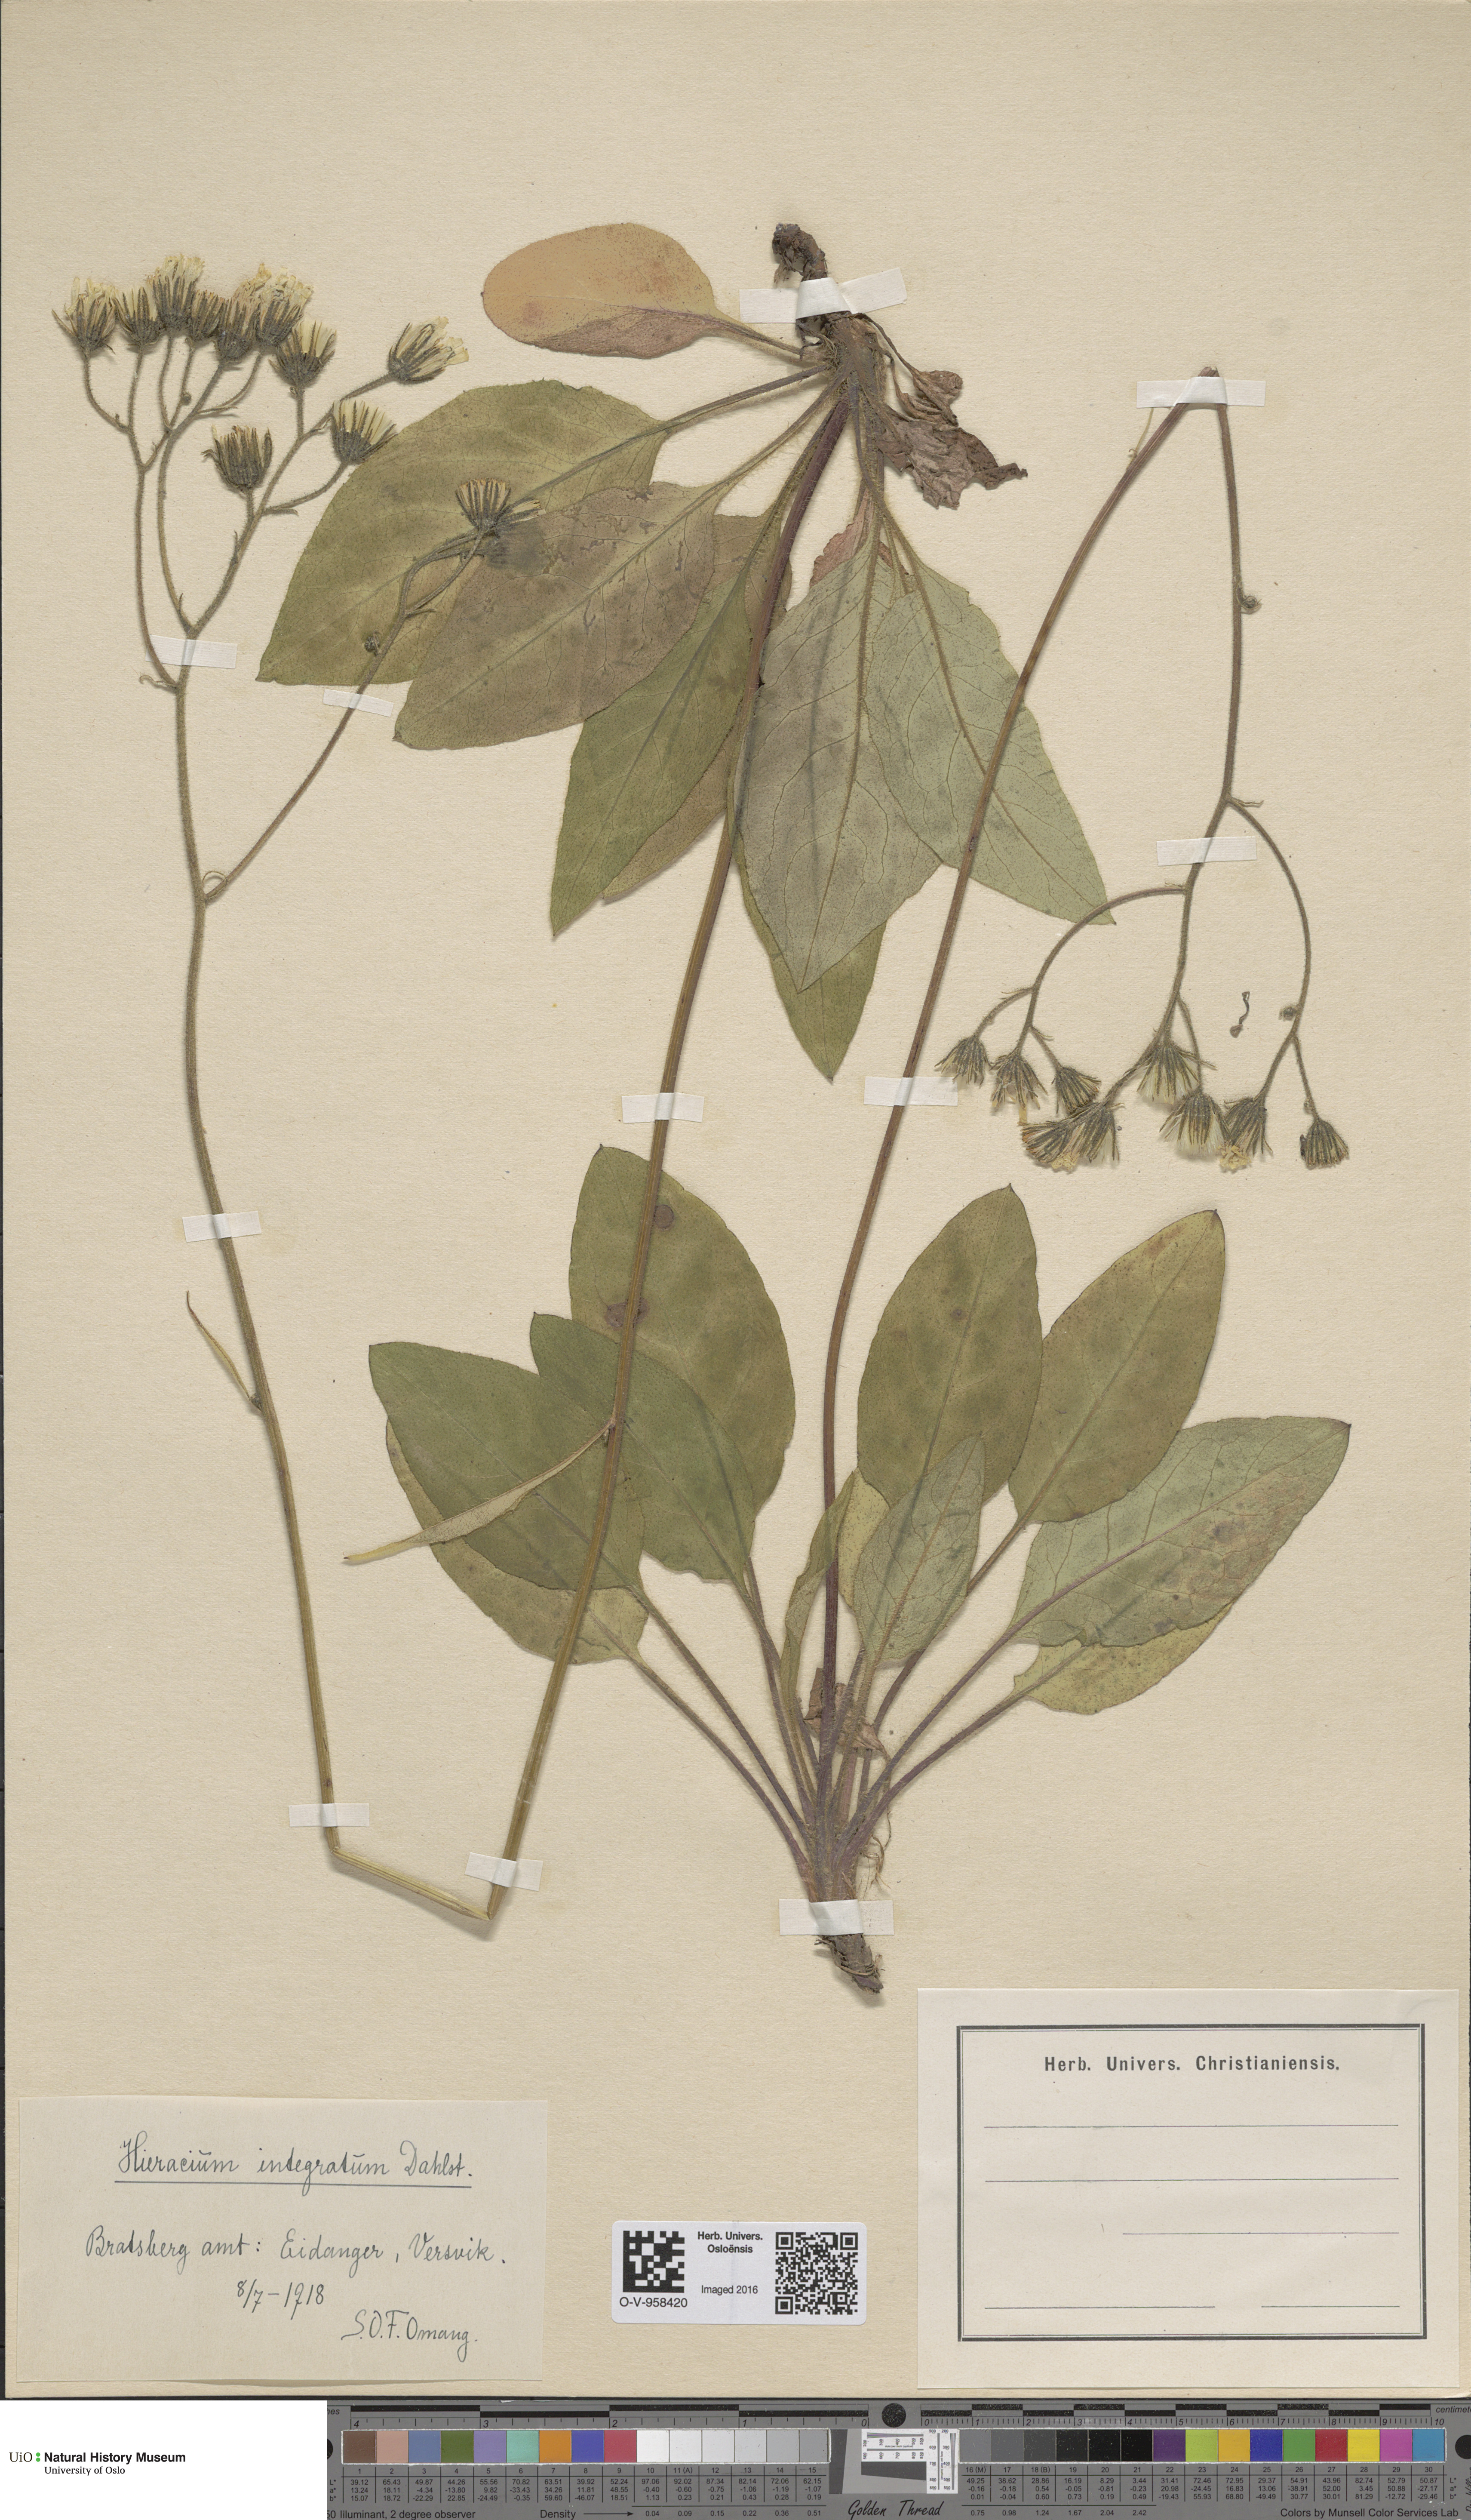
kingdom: Plantae
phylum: Tracheophyta
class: Magnoliopsida
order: Asterales
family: Asteraceae
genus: Hieracium
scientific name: Hieracium murorum
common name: Wall hawkweed
